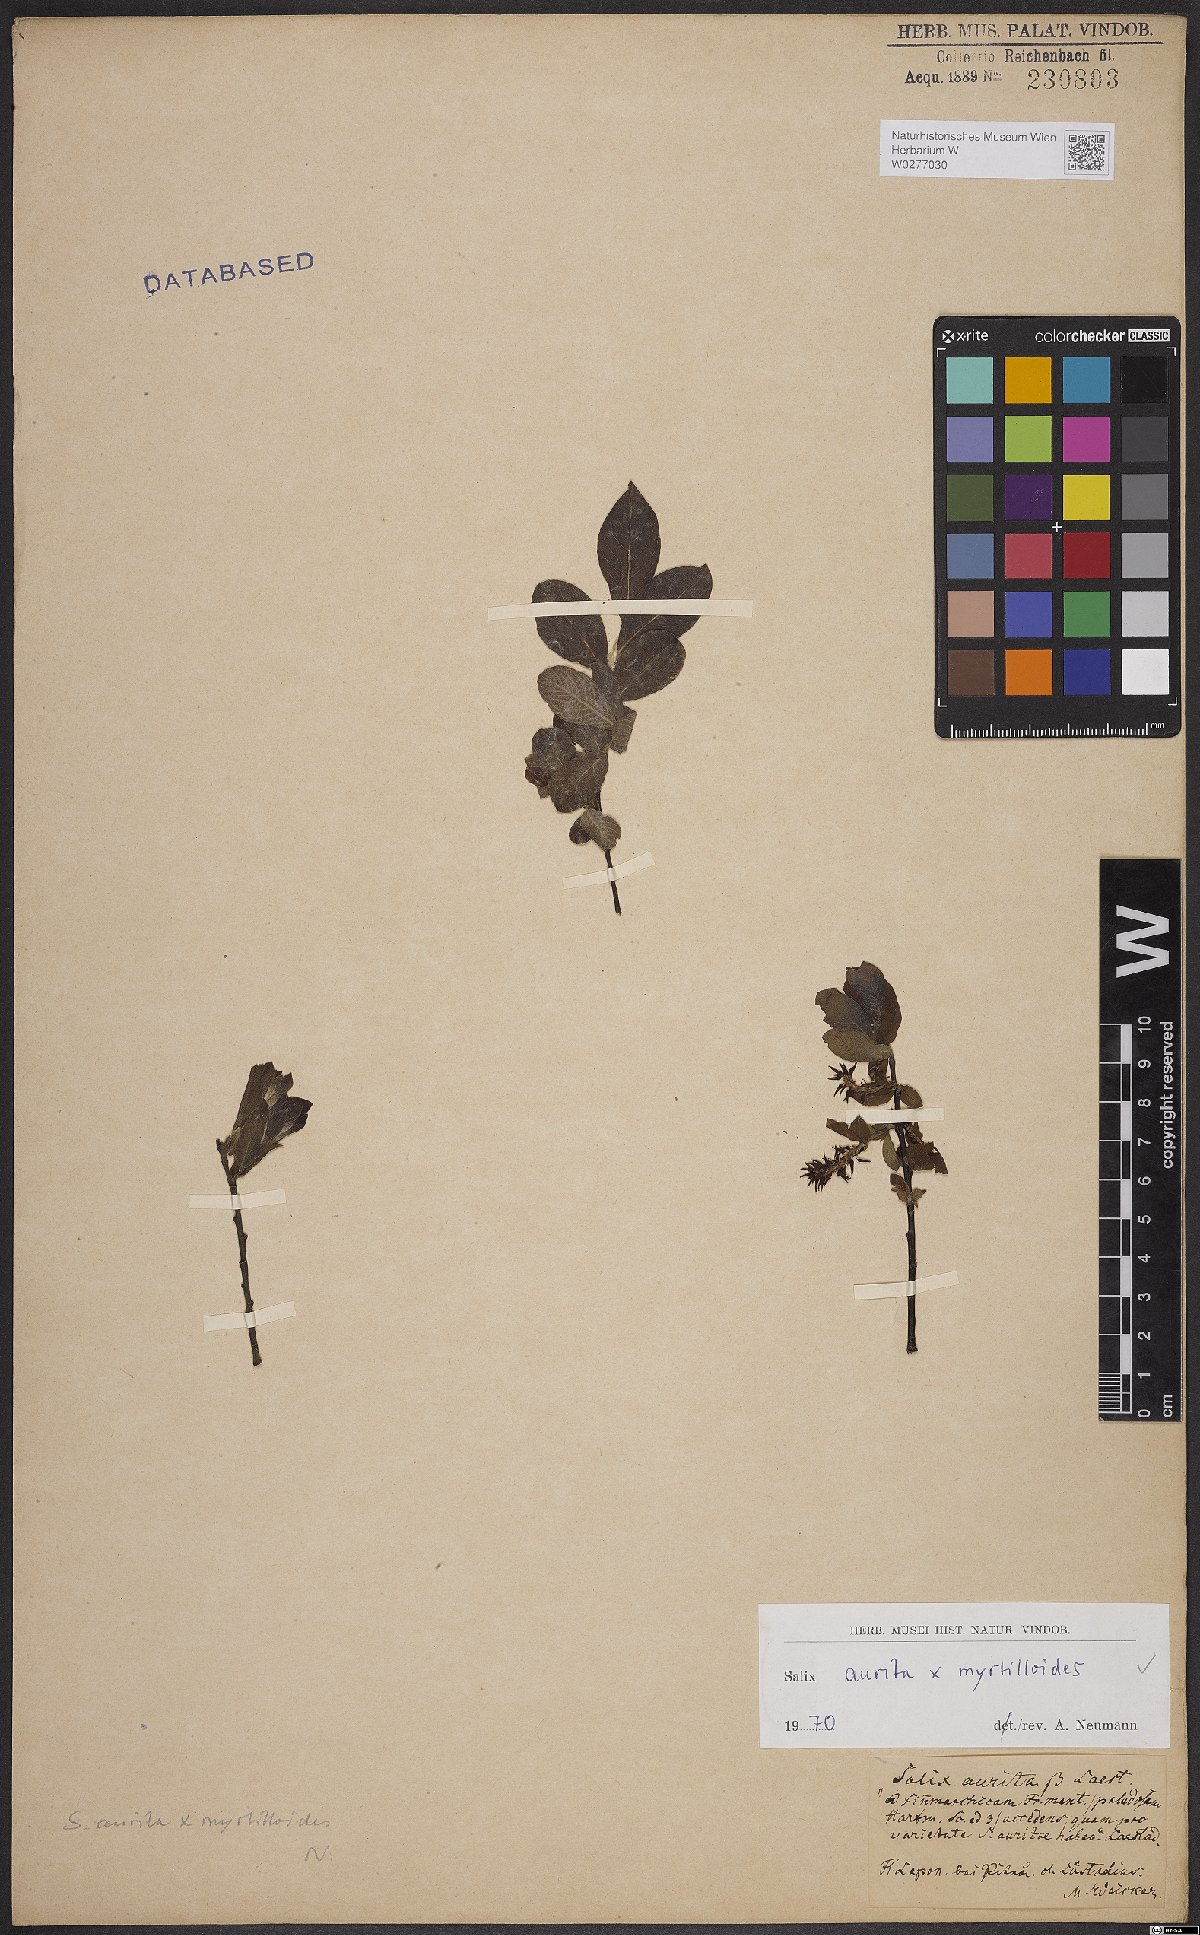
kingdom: Plantae
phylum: Tracheophyta
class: Magnoliopsida
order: Malpighiales
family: Salicaceae
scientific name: Salicaceae
